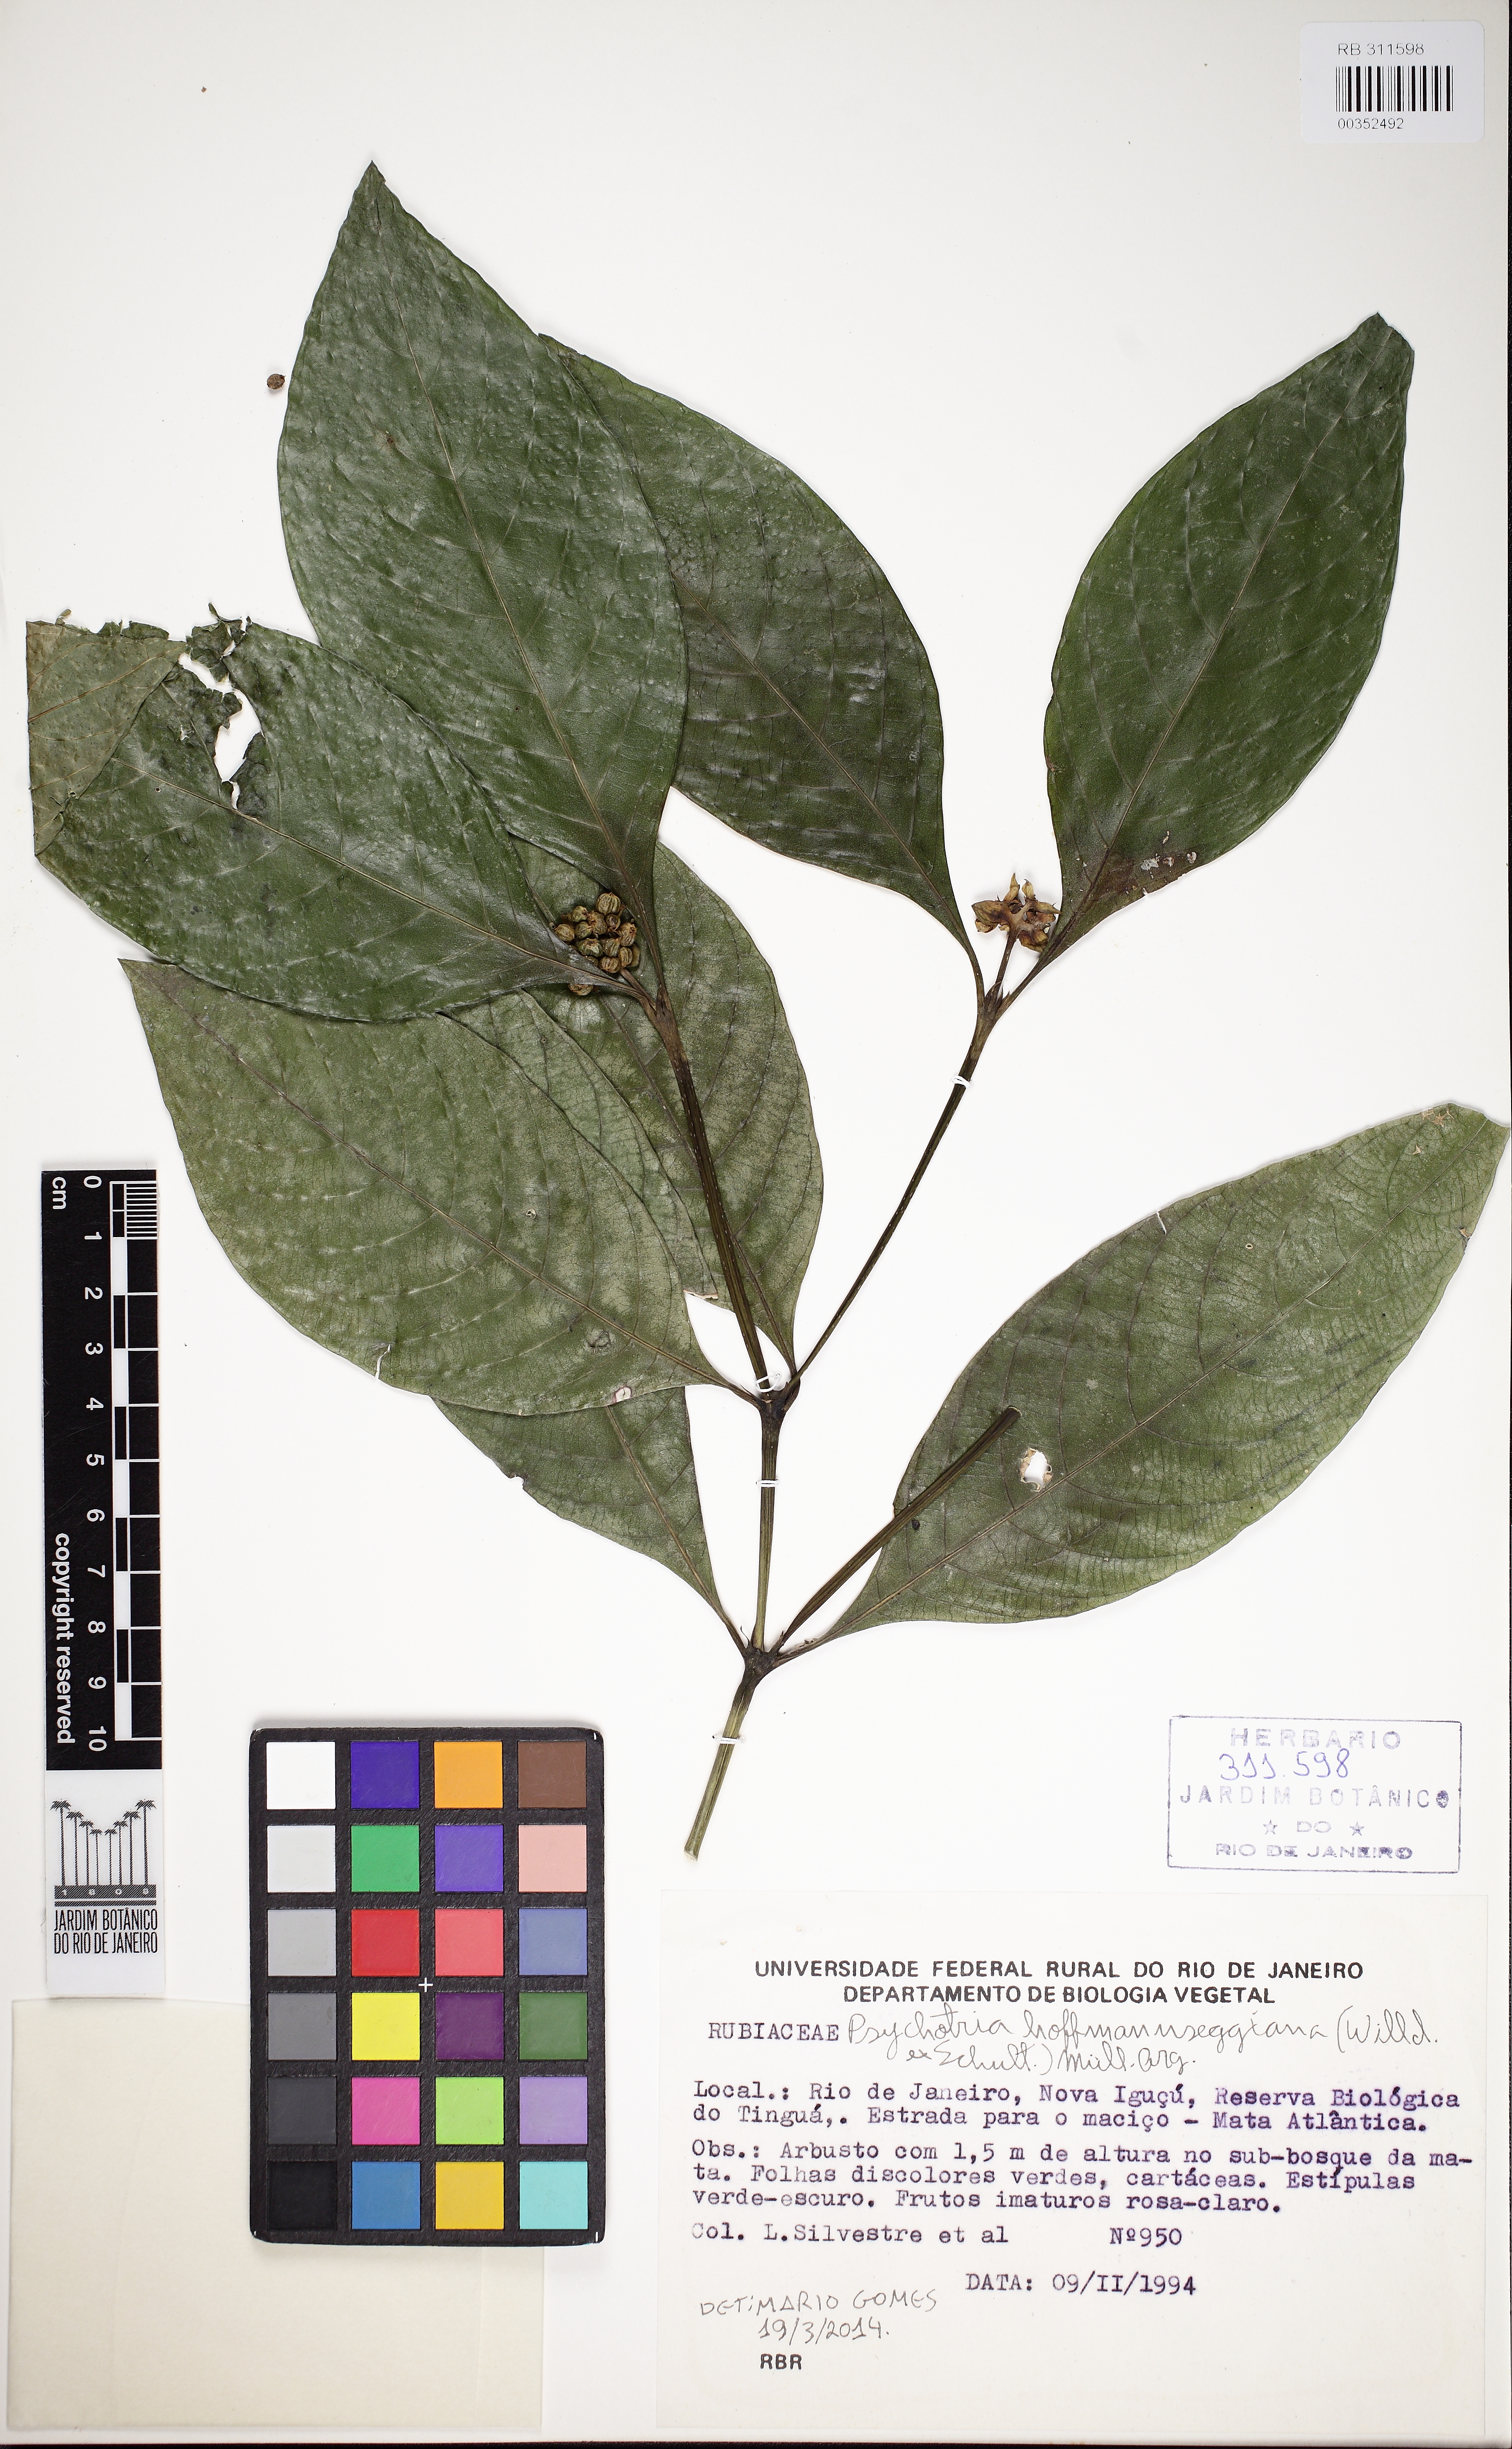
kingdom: Plantae
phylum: Tracheophyta
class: Magnoliopsida
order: Gentianales
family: Rubiaceae
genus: Palicourea
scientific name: Palicourea hoffmannseggiana
